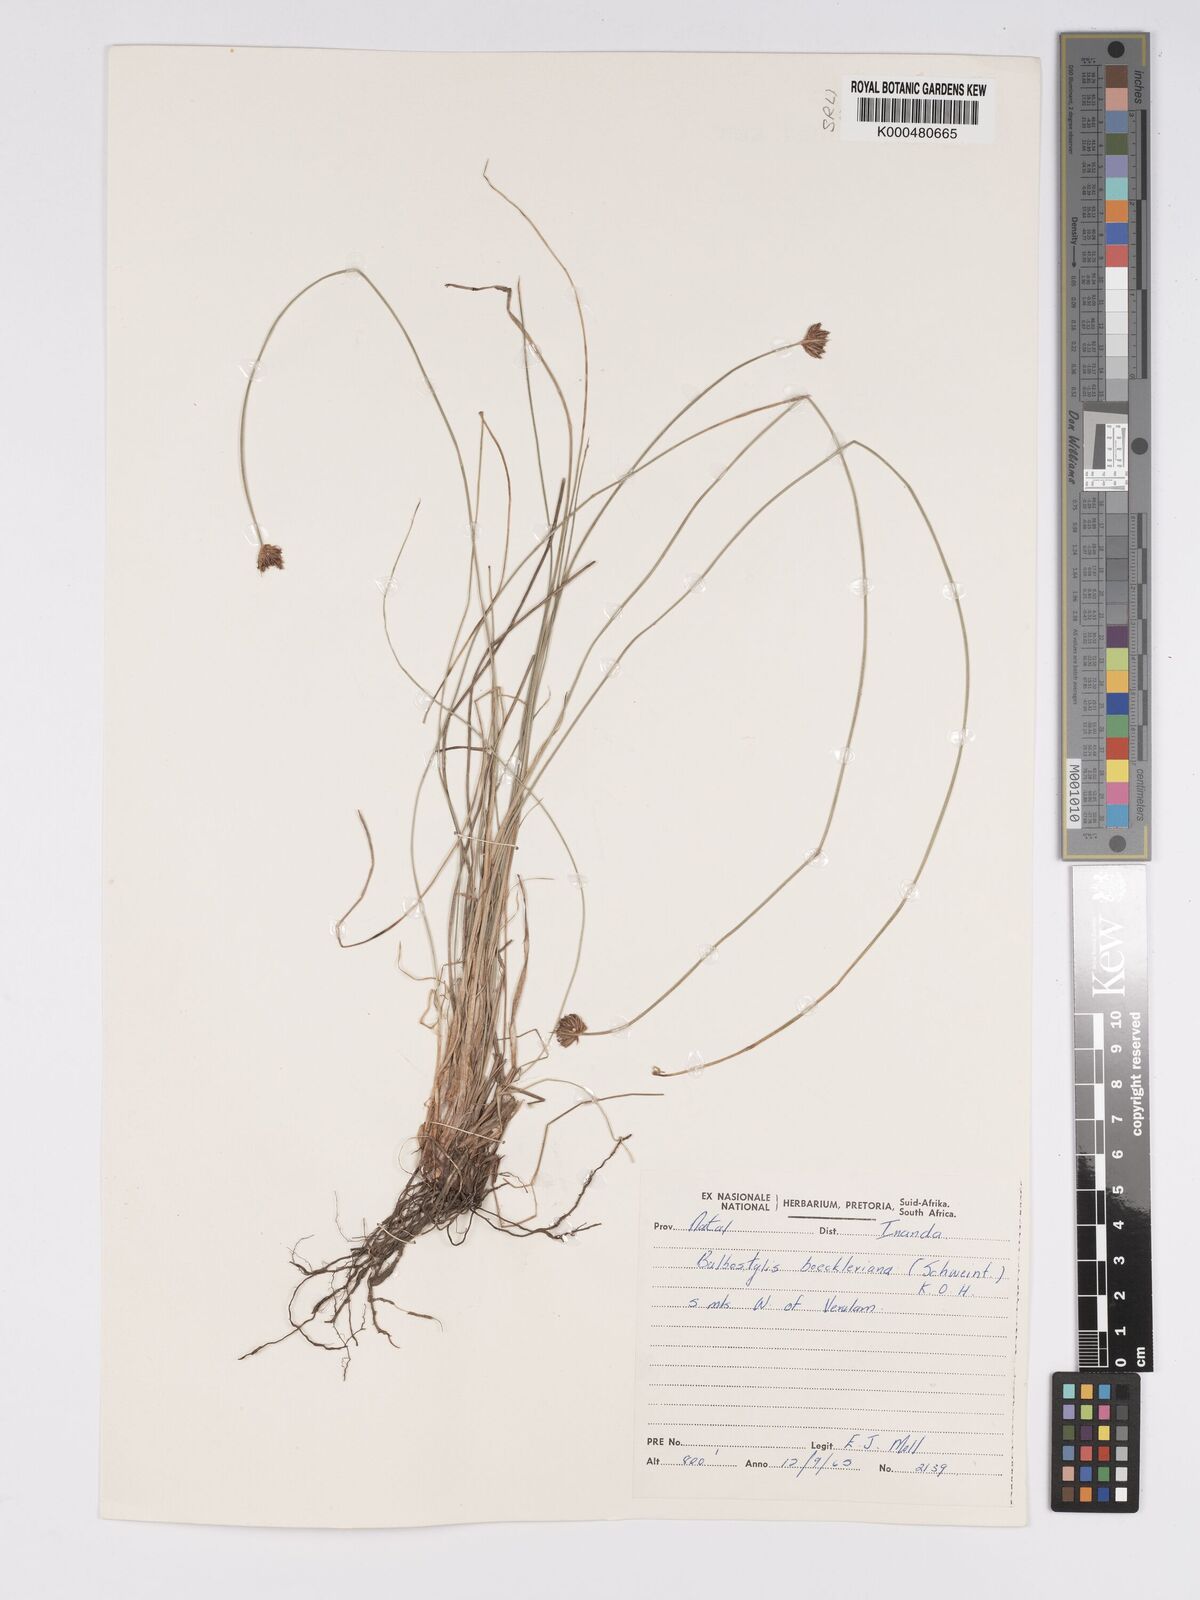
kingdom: Plantae
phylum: Tracheophyta
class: Liliopsida
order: Poales
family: Cyperaceae
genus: Bulbostylis
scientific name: Bulbostylis boeckeleriana
